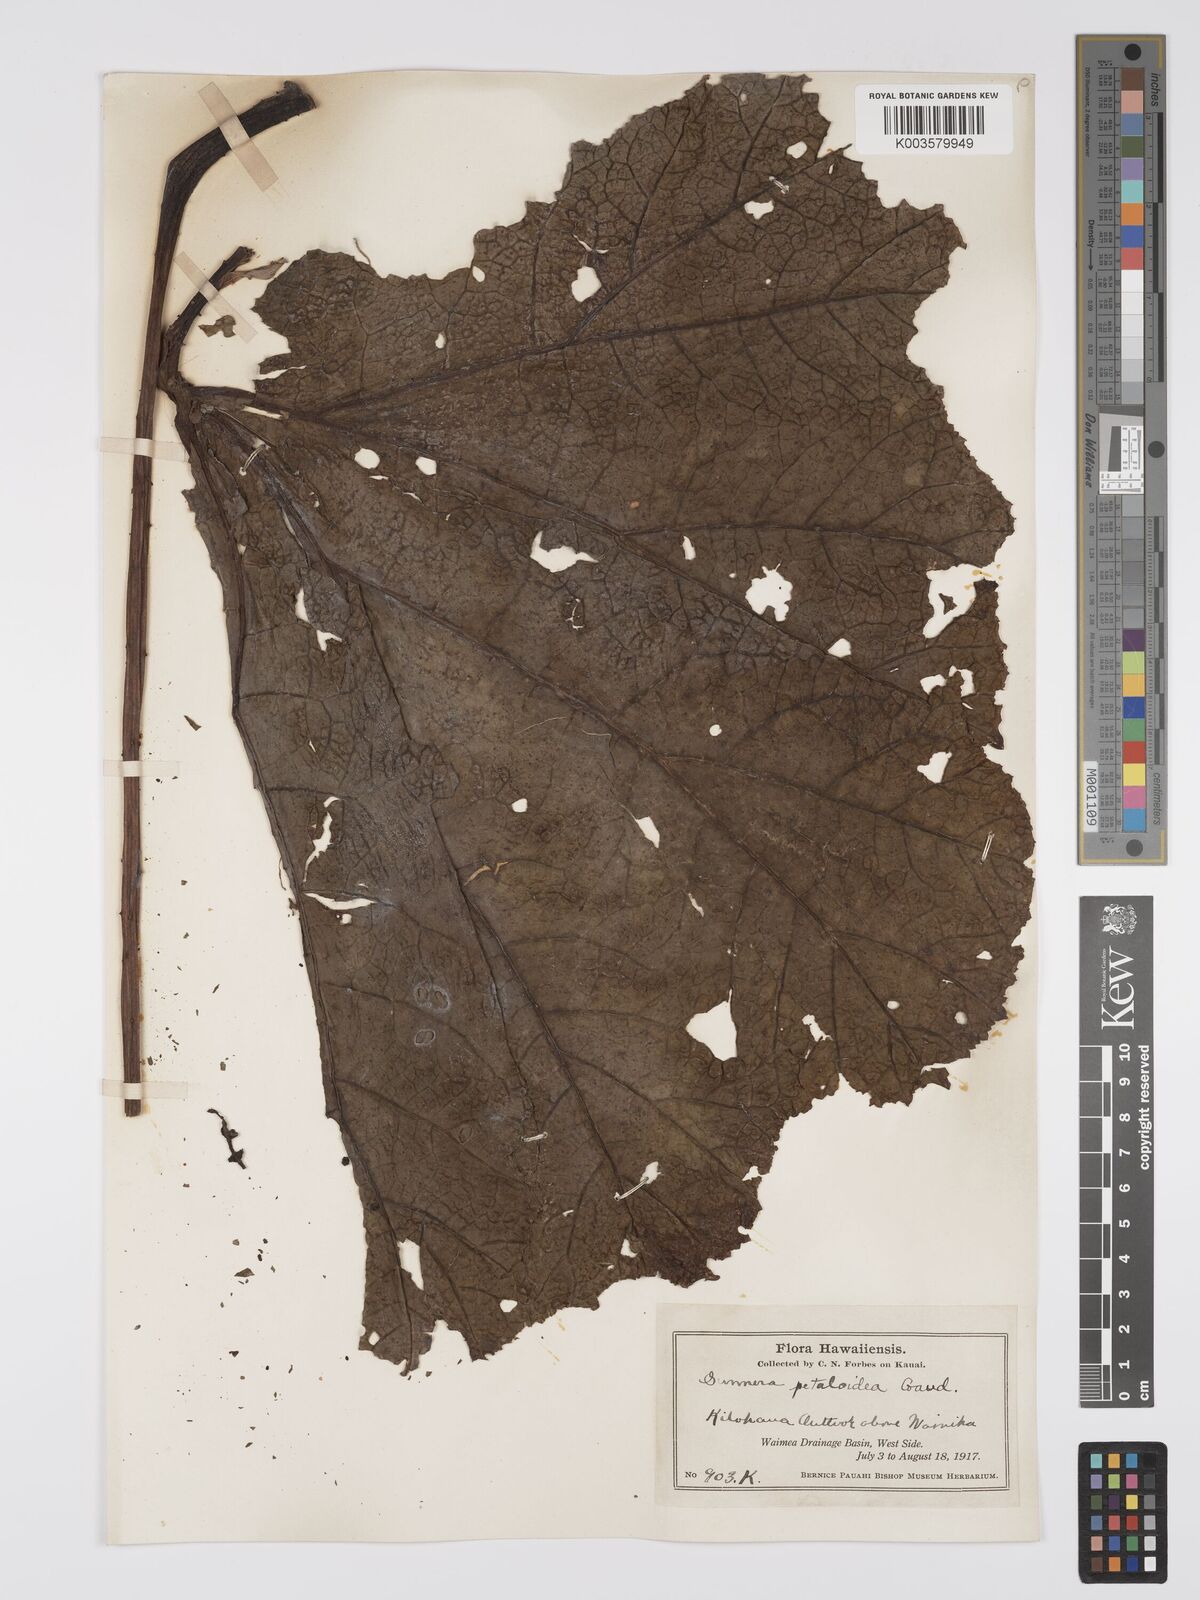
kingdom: Plantae
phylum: Tracheophyta
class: Magnoliopsida
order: Gunnerales
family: Gunneraceae
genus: Gunnera
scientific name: Gunnera petaloidea
